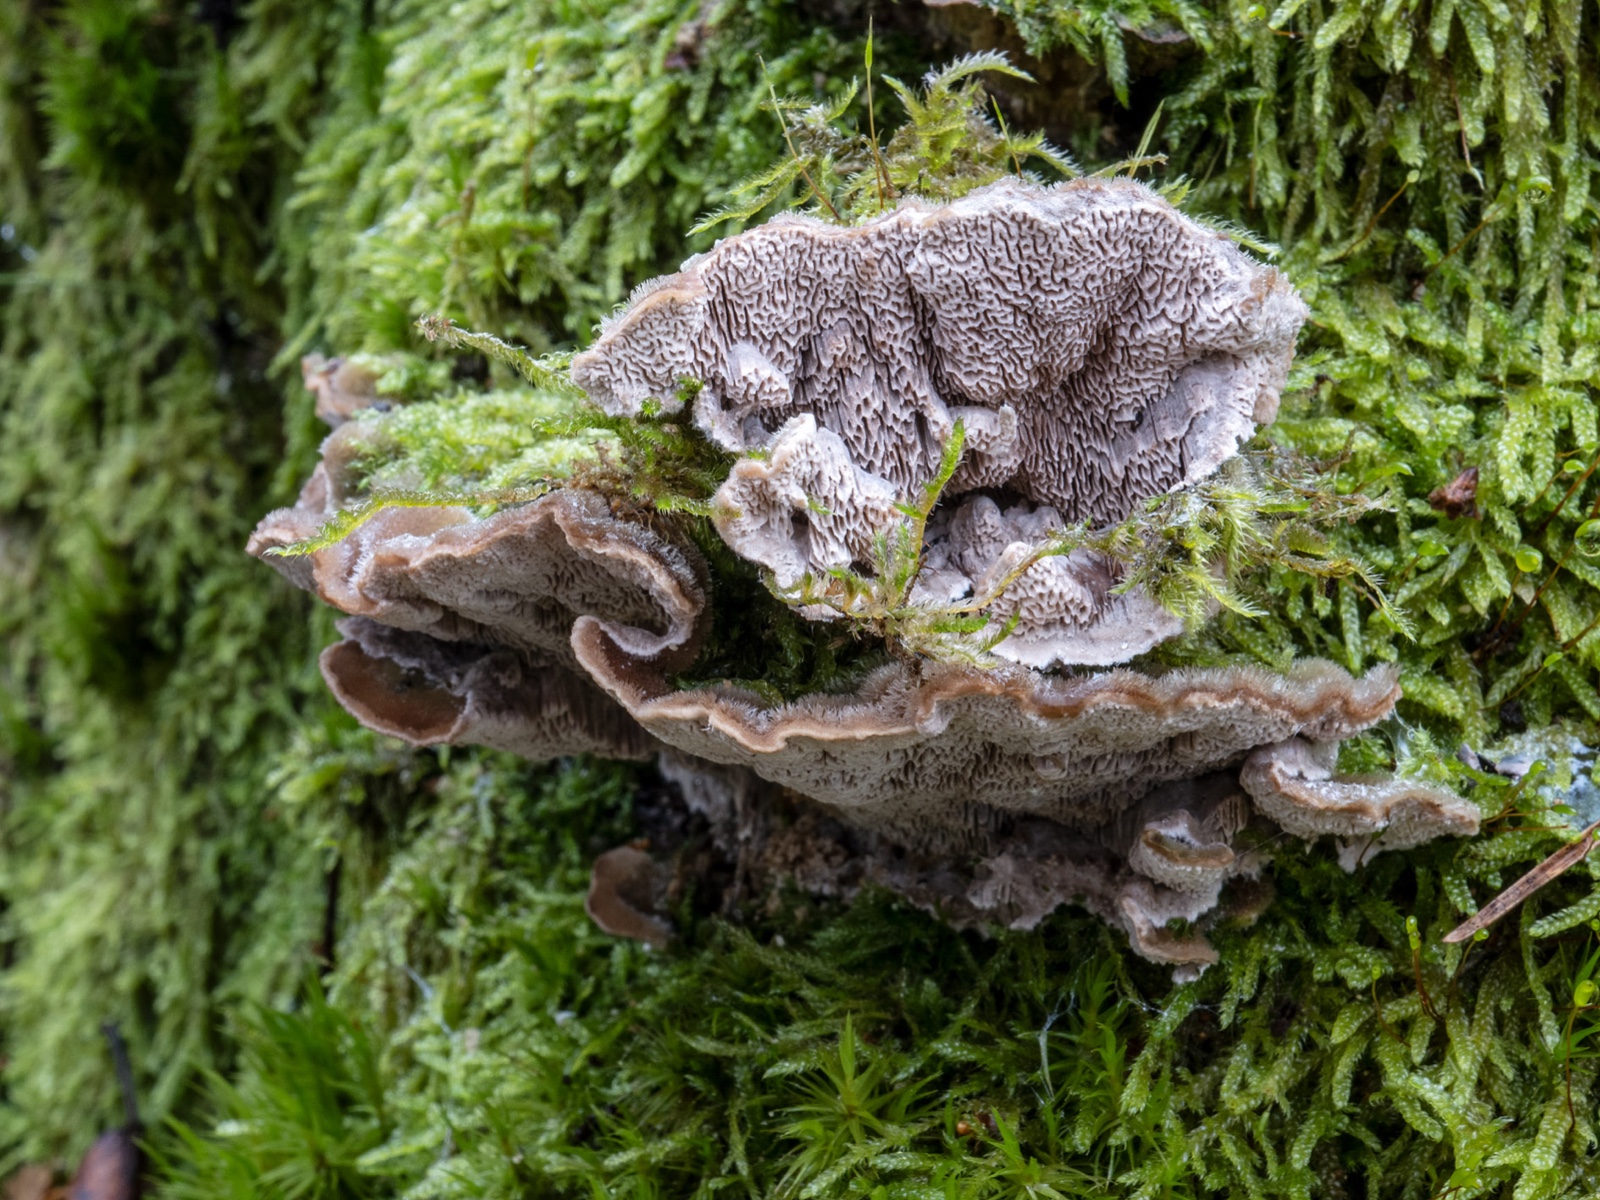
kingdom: Fungi
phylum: Basidiomycota
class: Agaricomycetes
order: Polyporales
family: Cerrenaceae
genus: Cerrena
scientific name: Cerrena unicolor
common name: ensfarvet læderporesvamp
